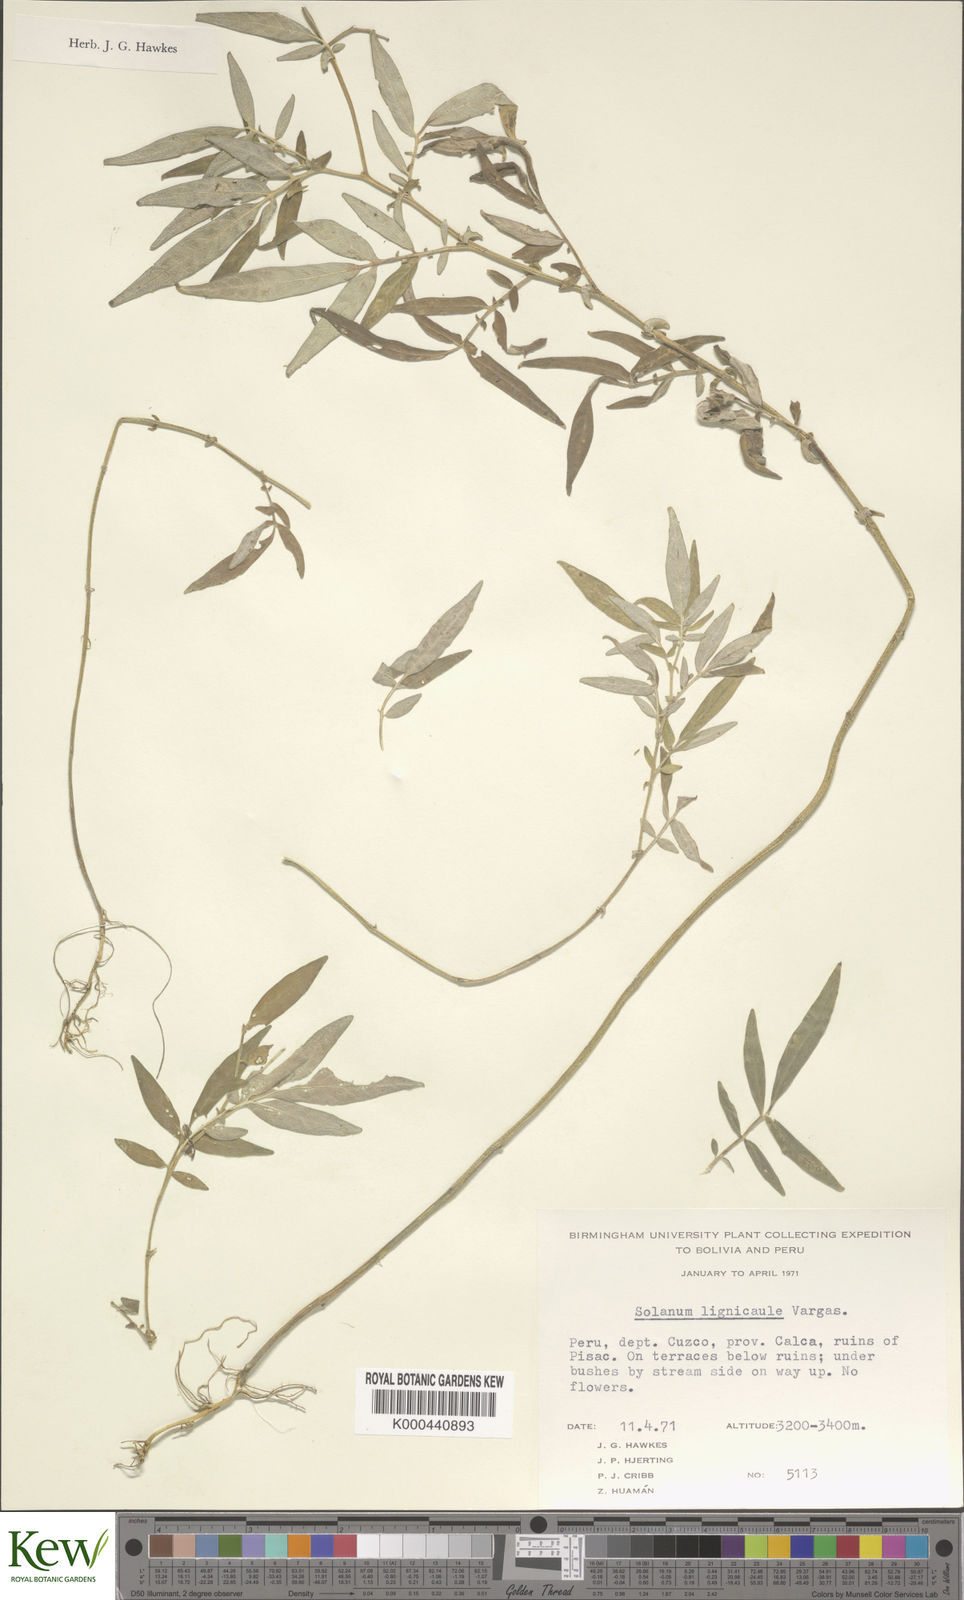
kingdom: Plantae
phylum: Tracheophyta
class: Magnoliopsida
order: Solanales
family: Solanaceae
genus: Solanum
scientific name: Solanum lignicaule
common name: Fox potato
